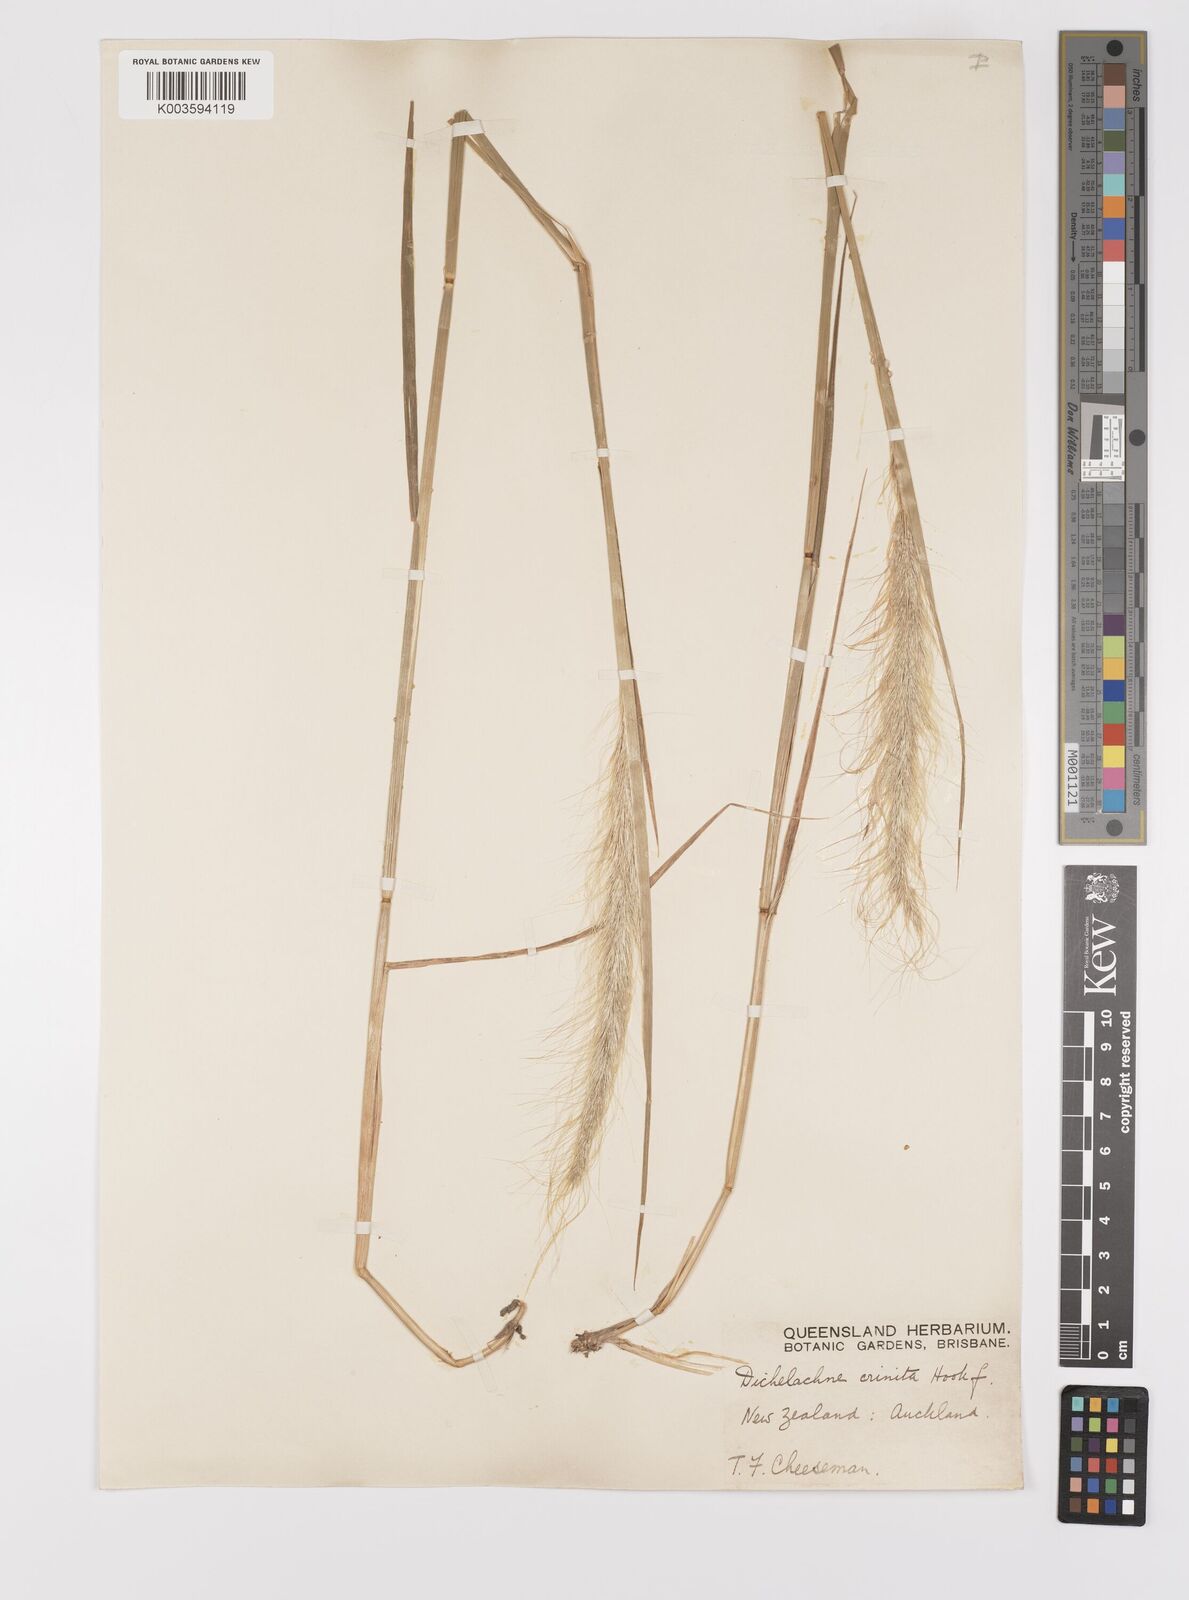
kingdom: Plantae
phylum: Tracheophyta
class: Liliopsida
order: Poales
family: Poaceae
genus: Dichelachne
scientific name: Dichelachne crinita
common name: Clovenfoot plumegrass
